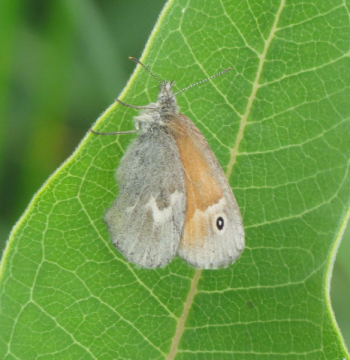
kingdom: Animalia
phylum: Arthropoda
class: Insecta
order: Lepidoptera
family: Nymphalidae
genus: Coenonympha
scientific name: Coenonympha tullia
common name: Large Heath
